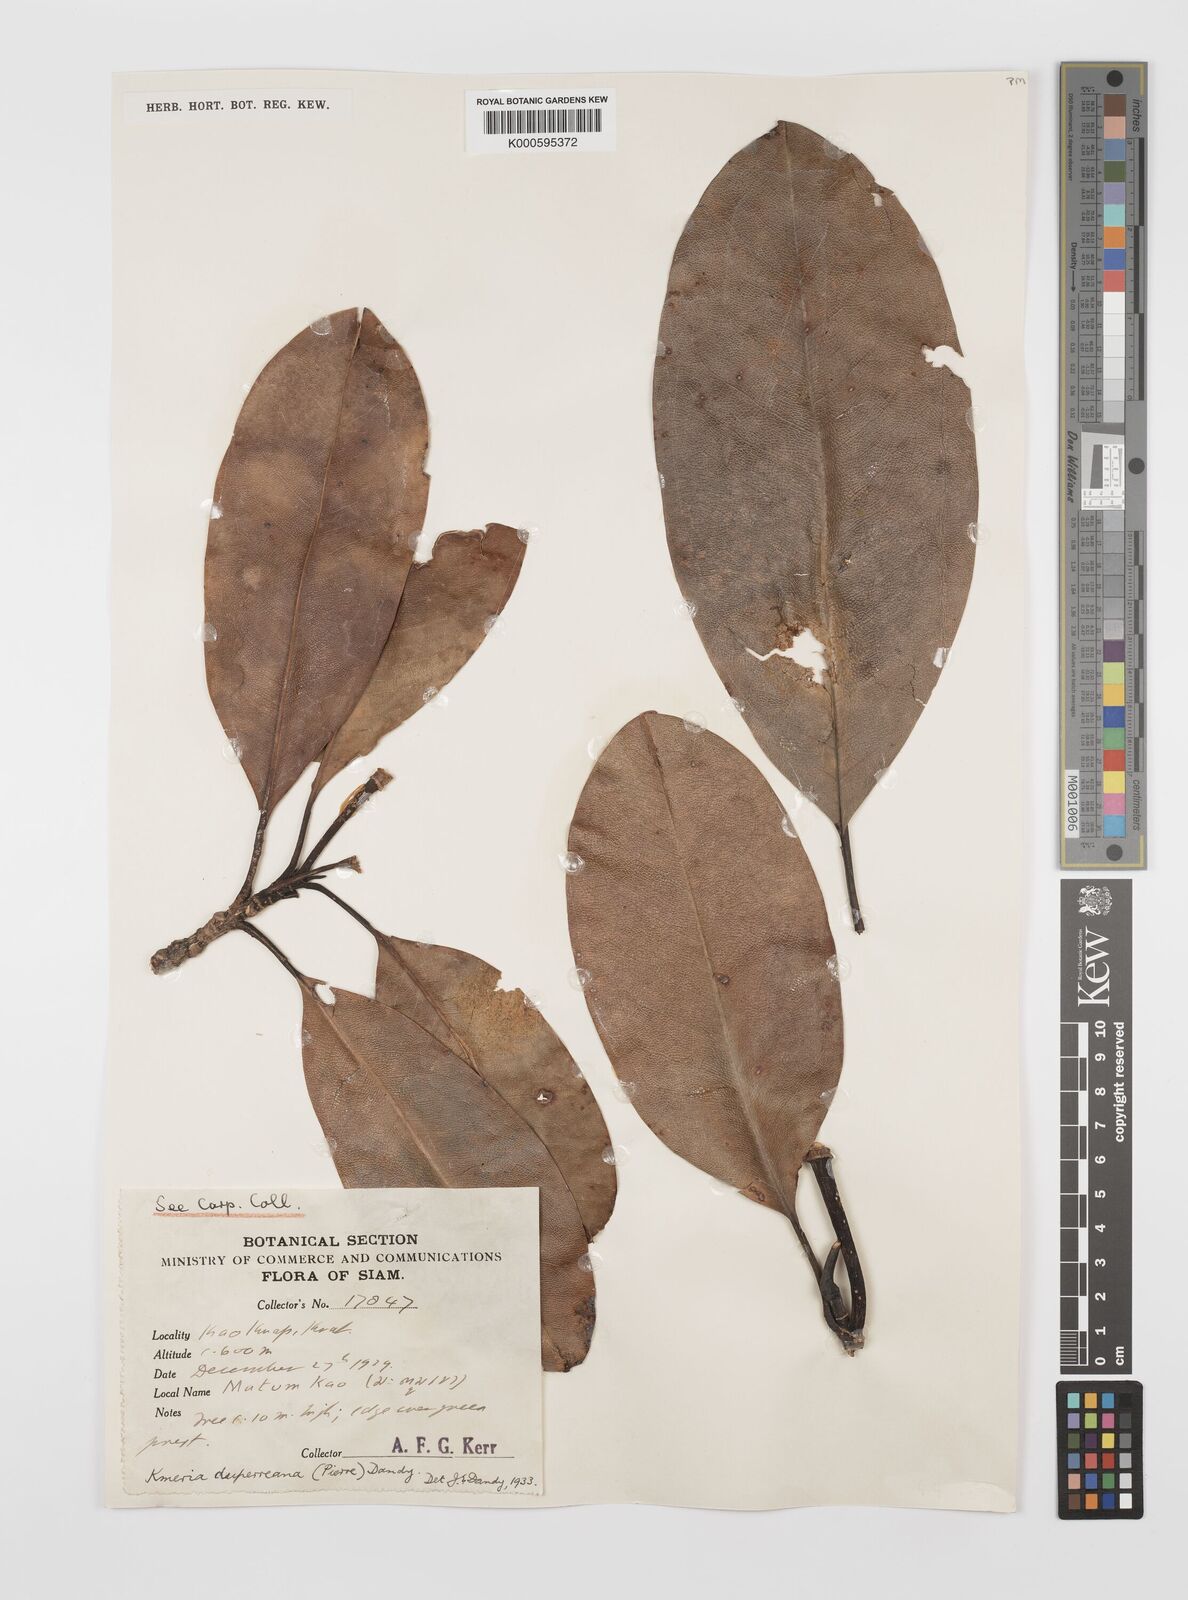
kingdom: Plantae
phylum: Tracheophyta
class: Magnoliopsida
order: Magnoliales
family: Magnoliaceae
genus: Magnolia
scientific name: Magnolia duperreana
